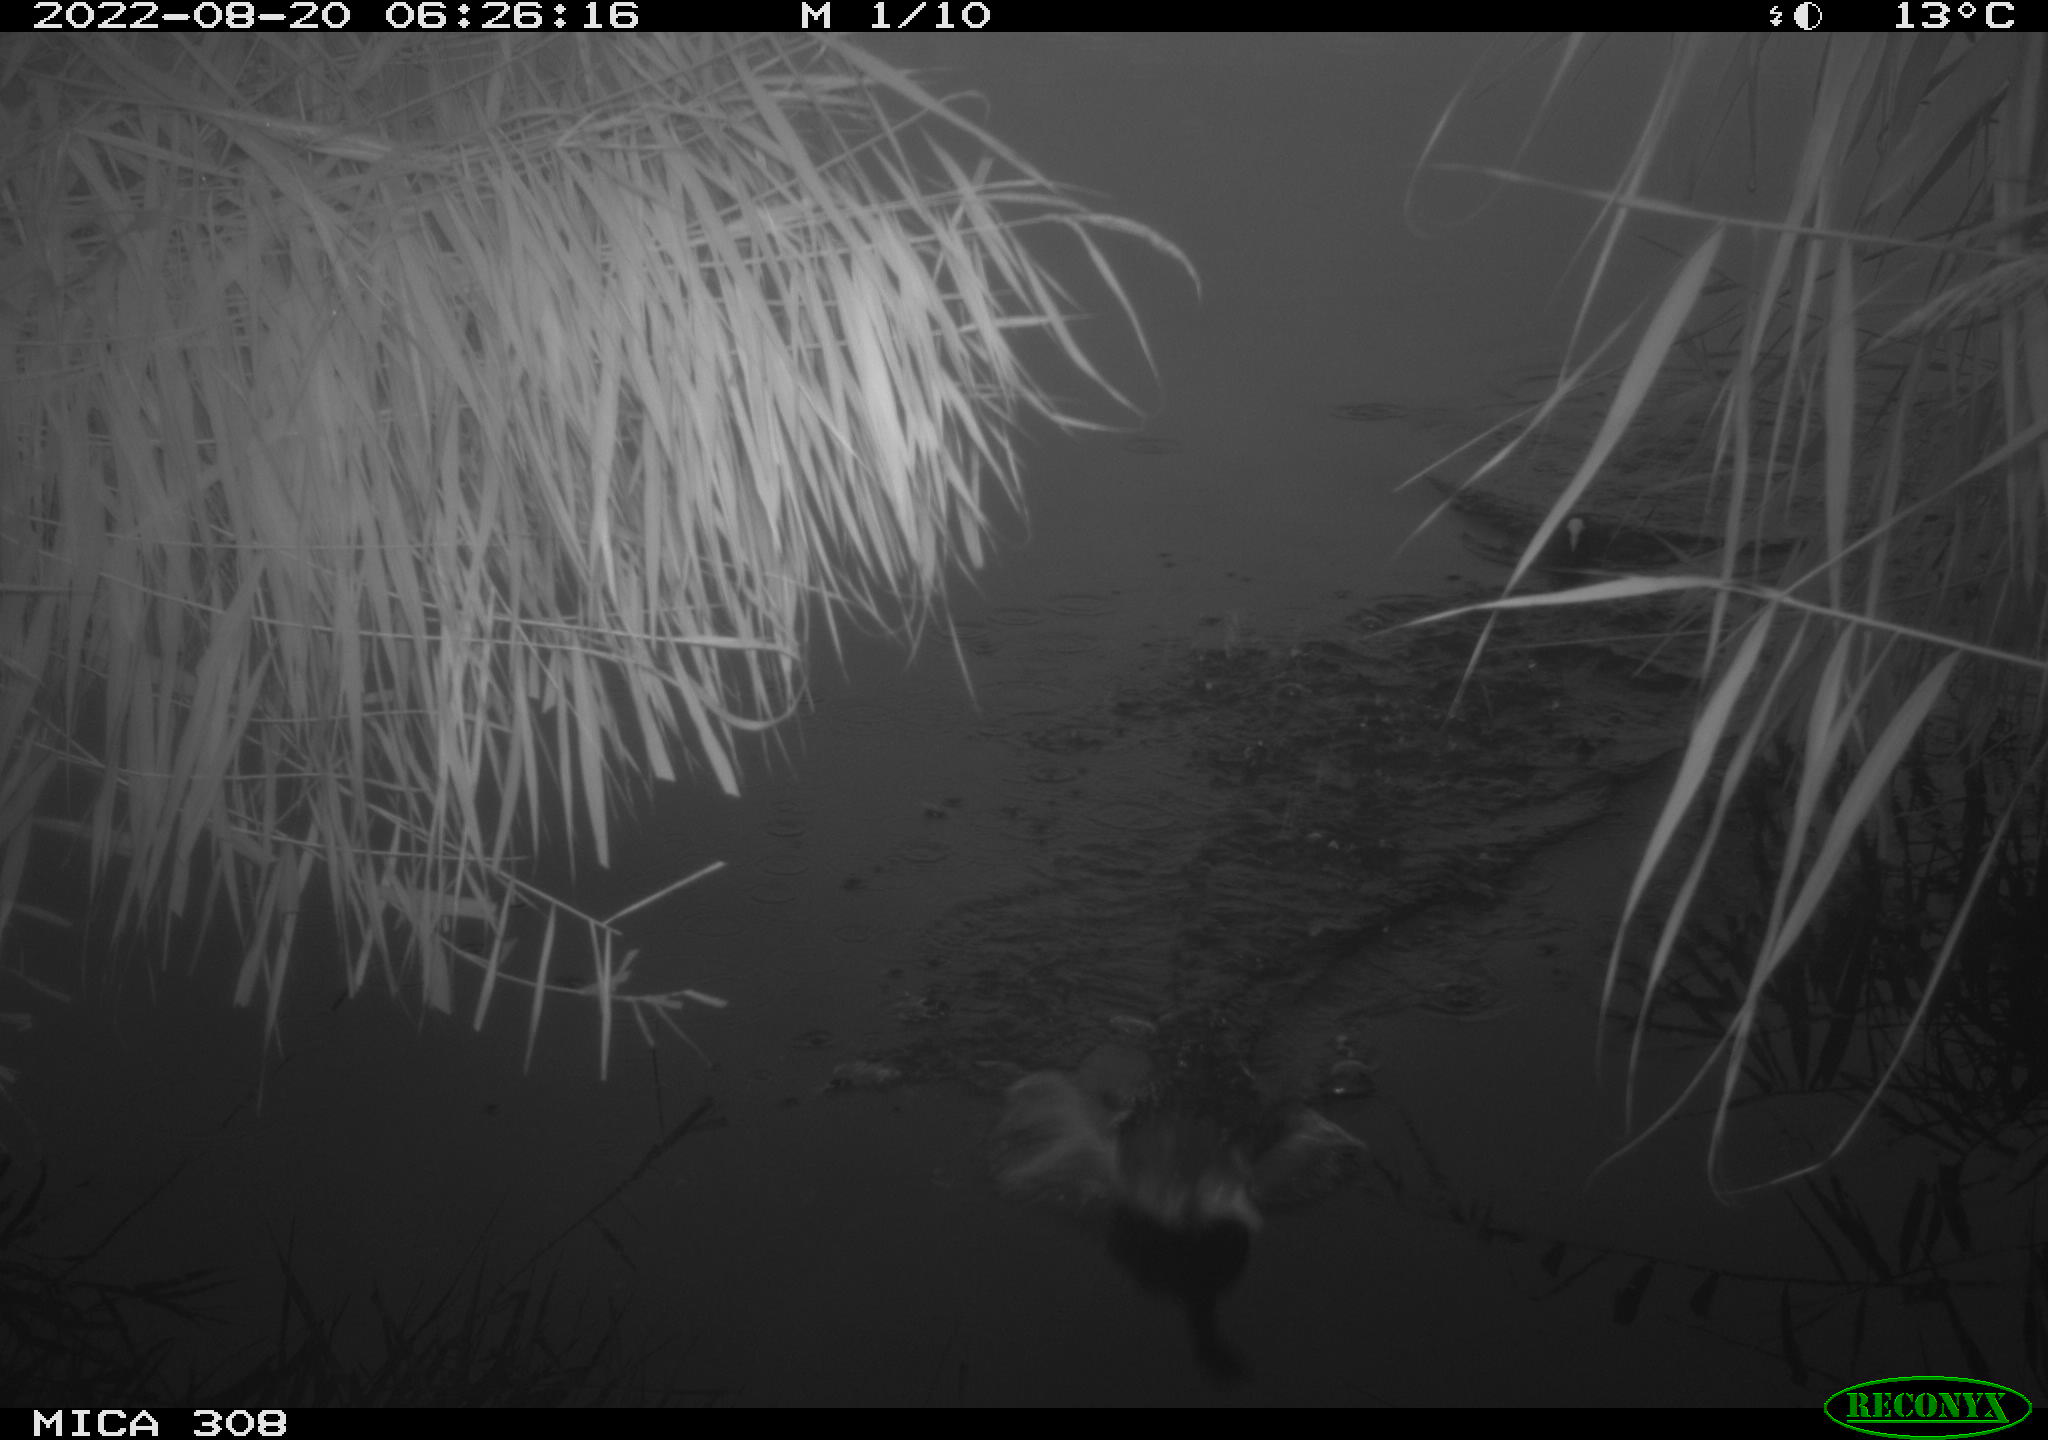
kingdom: Animalia
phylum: Chordata
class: Aves
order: Gruiformes
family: Rallidae
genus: Fulica
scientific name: Fulica atra
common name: Eurasian coot
